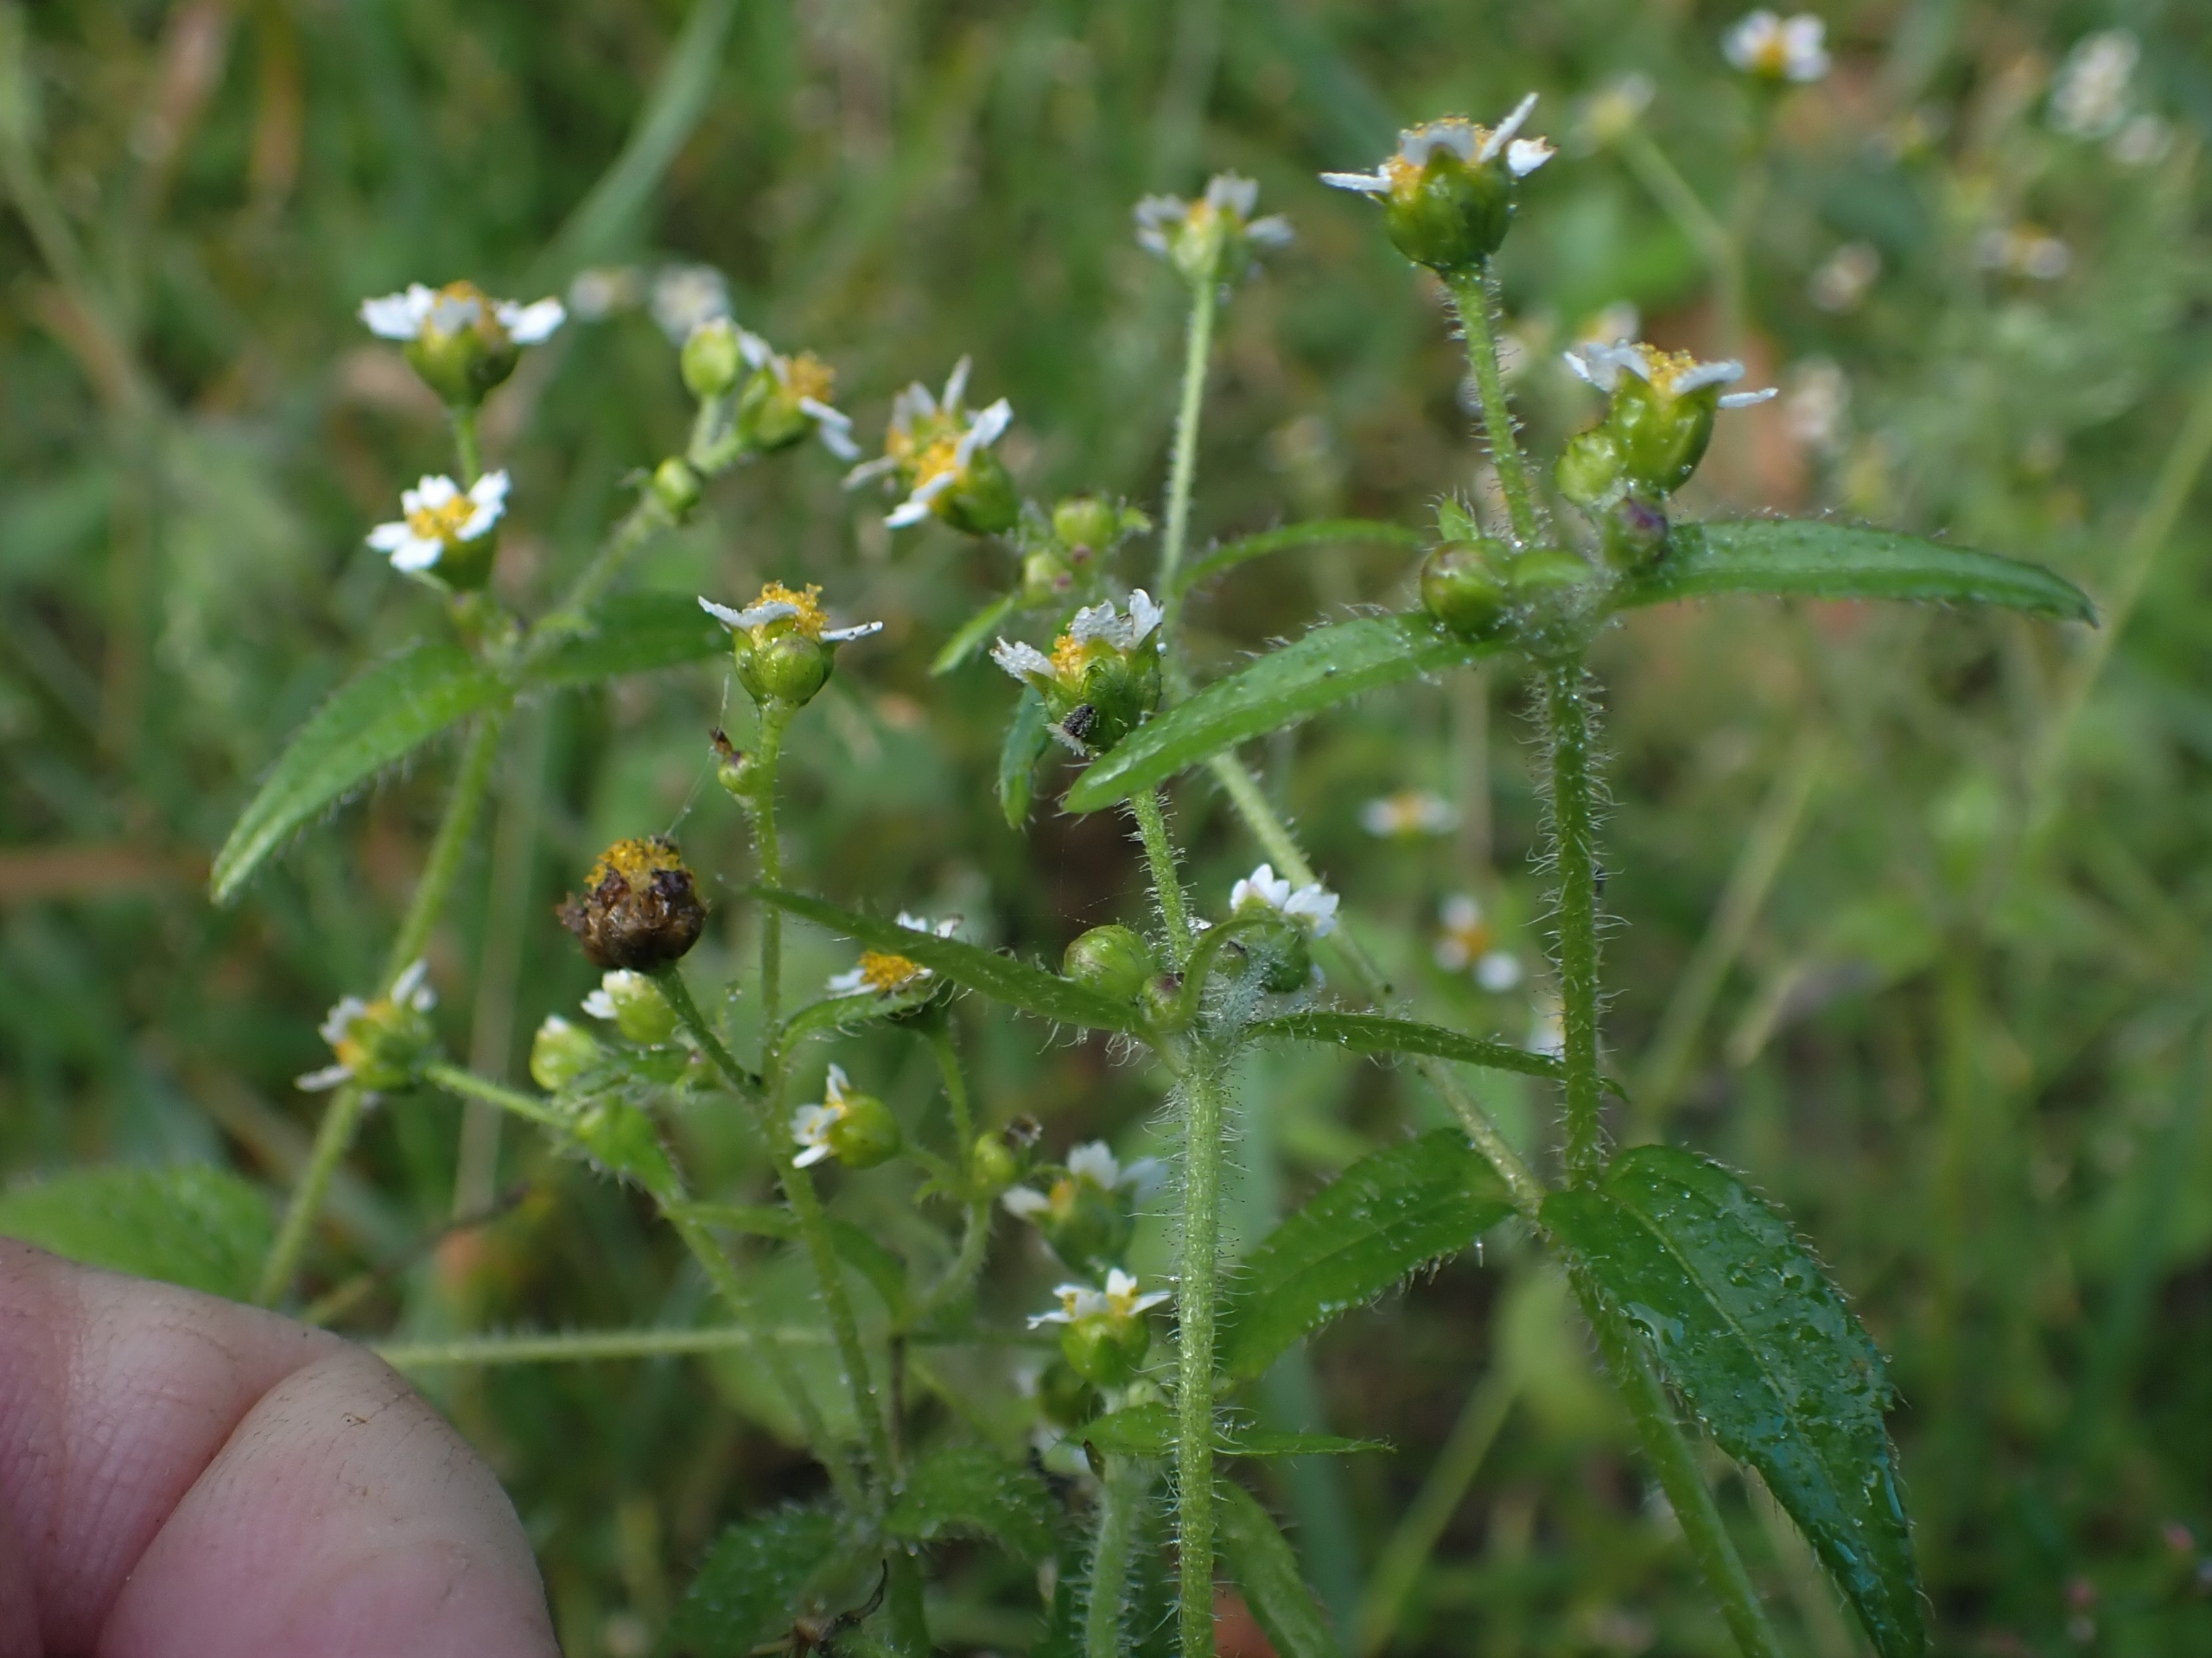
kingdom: Plantae
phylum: Tracheophyta
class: Magnoliopsida
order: Asterales
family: Asteraceae
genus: Galinsoga
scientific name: Galinsoga quadriradiata
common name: Kirtel-kortstråle
